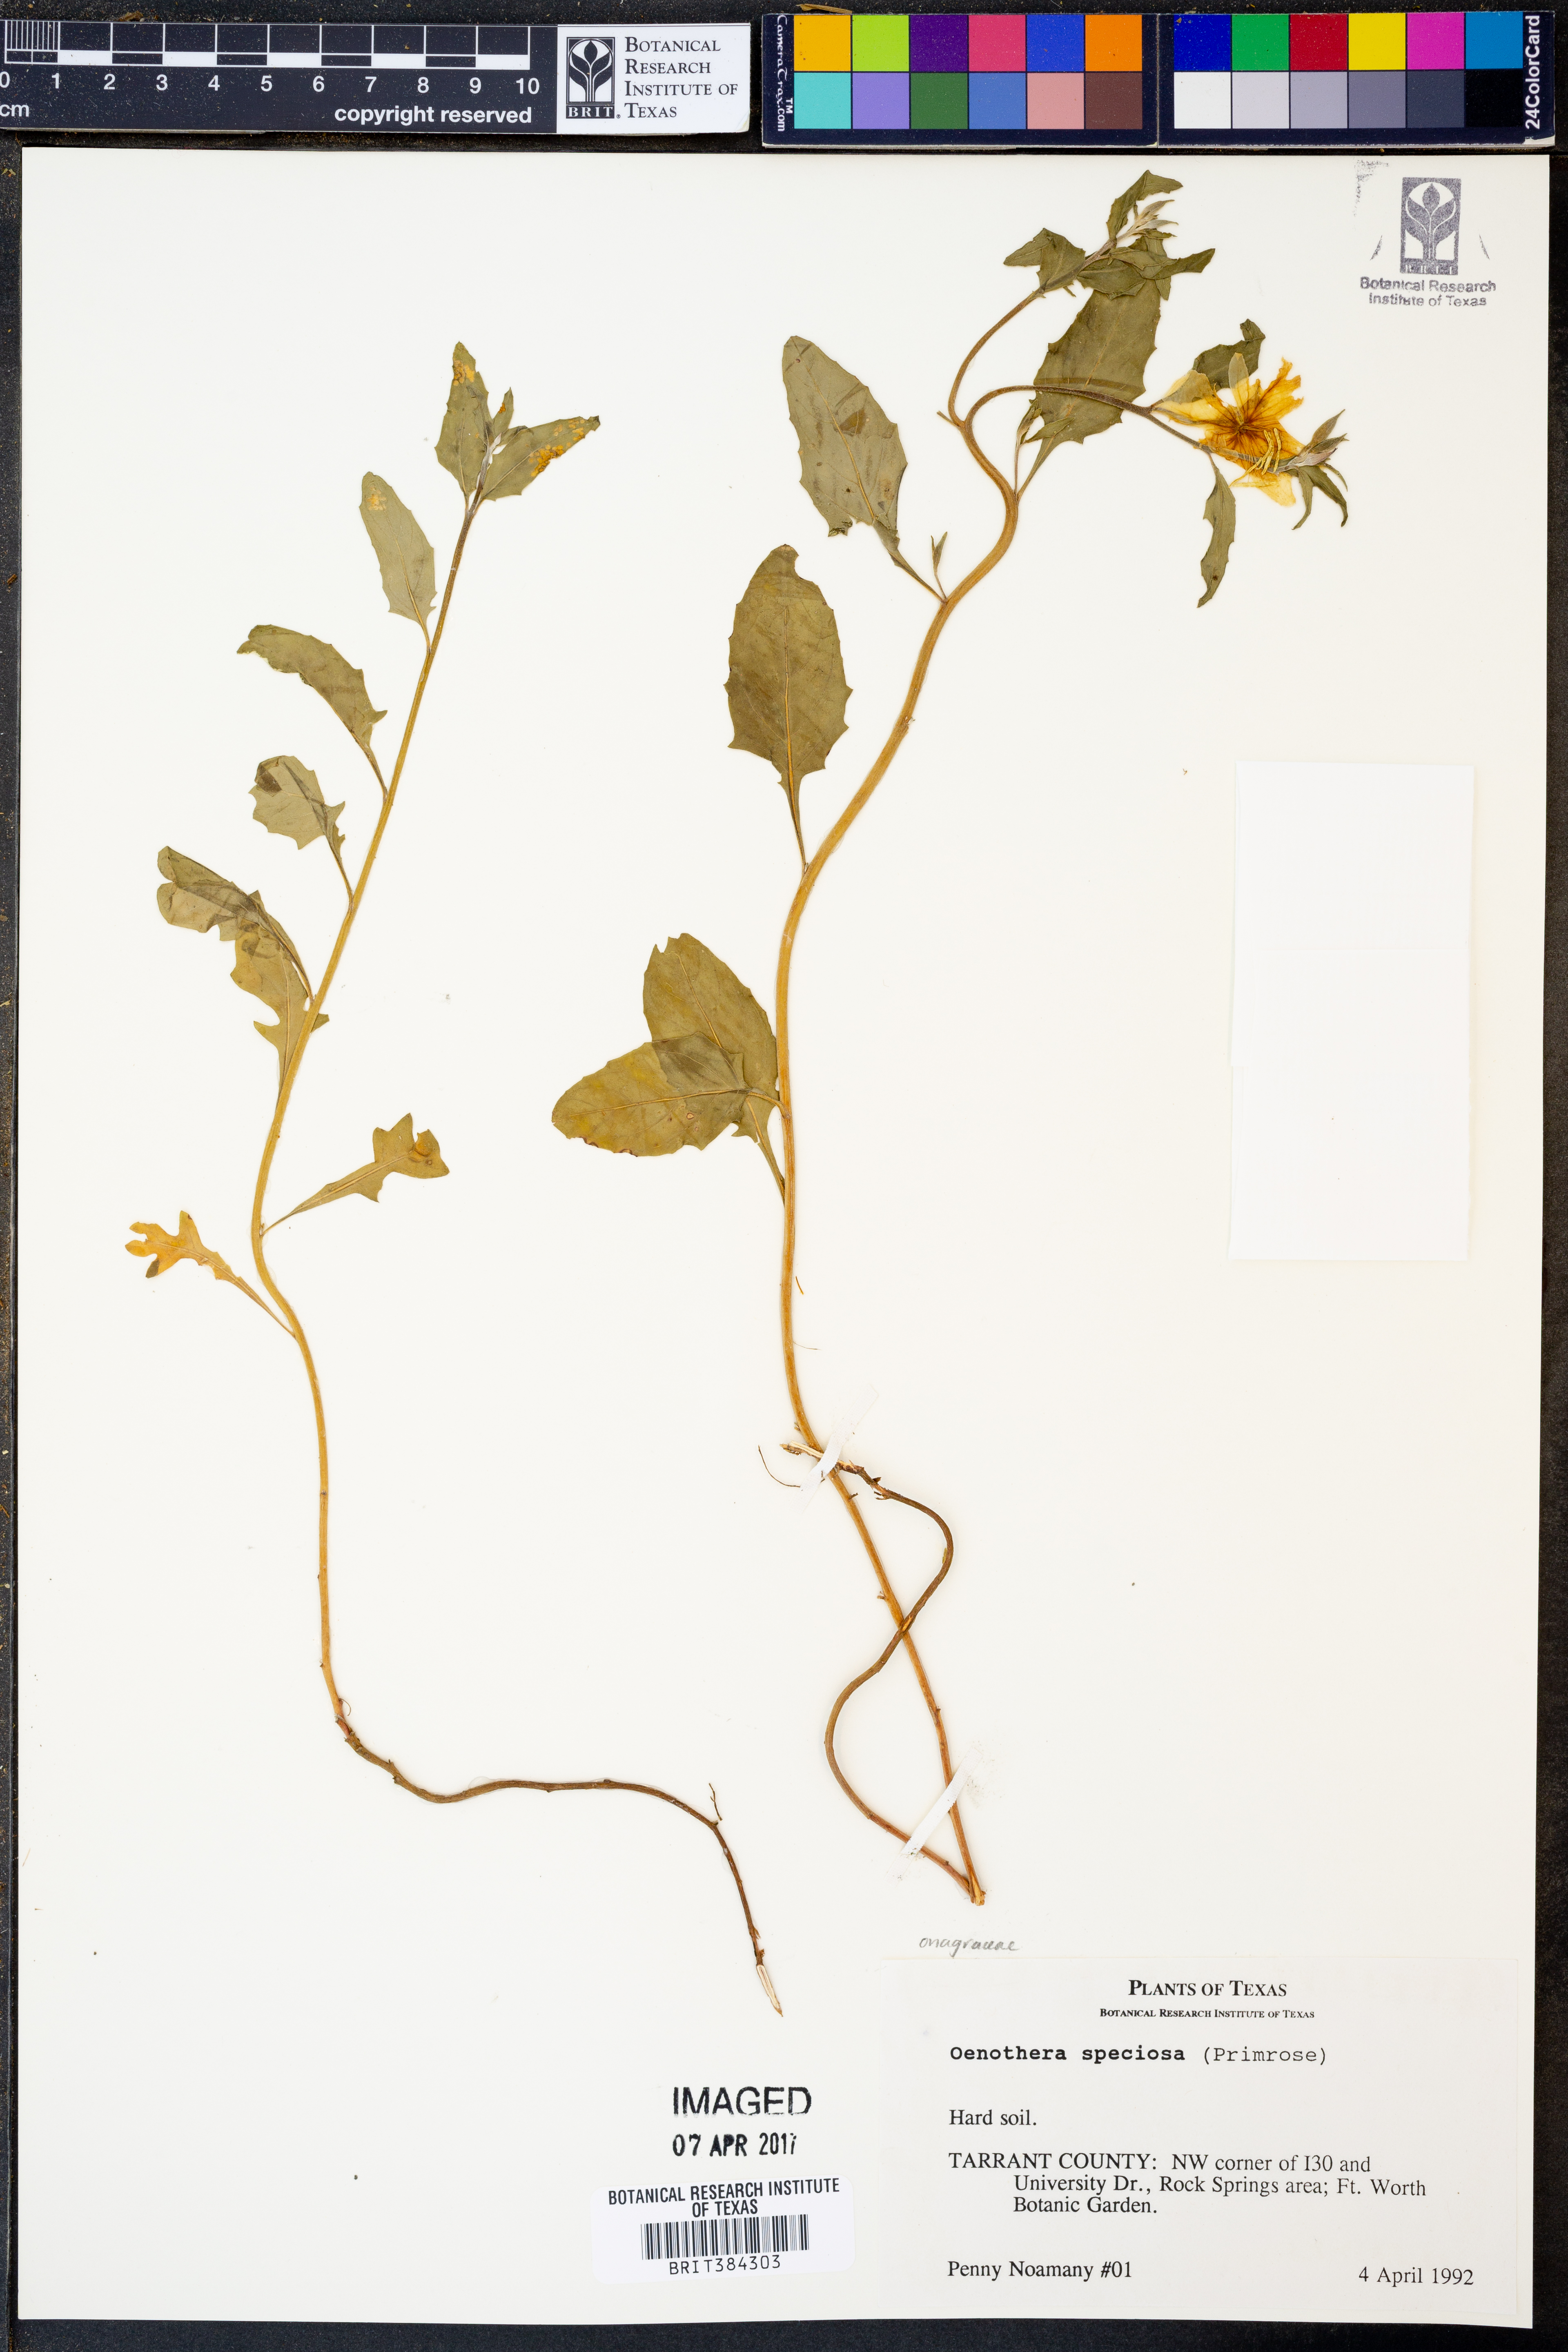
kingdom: Plantae
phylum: Tracheophyta
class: Magnoliopsida
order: Myrtales
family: Onagraceae
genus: Oenothera
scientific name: Oenothera speciosa
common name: White evening-primrose
